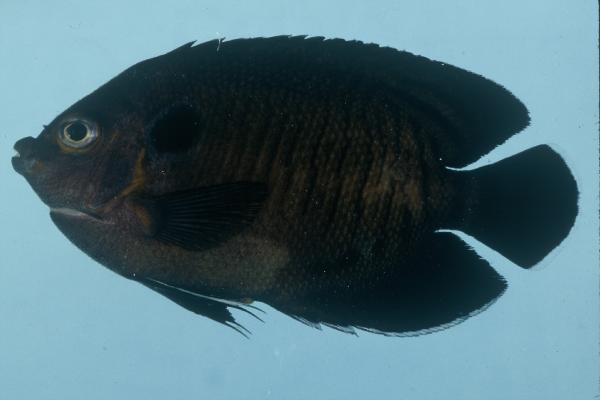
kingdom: Animalia
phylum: Chordata
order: Perciformes
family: Pomacanthidae
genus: Centropyge
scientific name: Centropyge multispinis
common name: Many-spined angelfish
